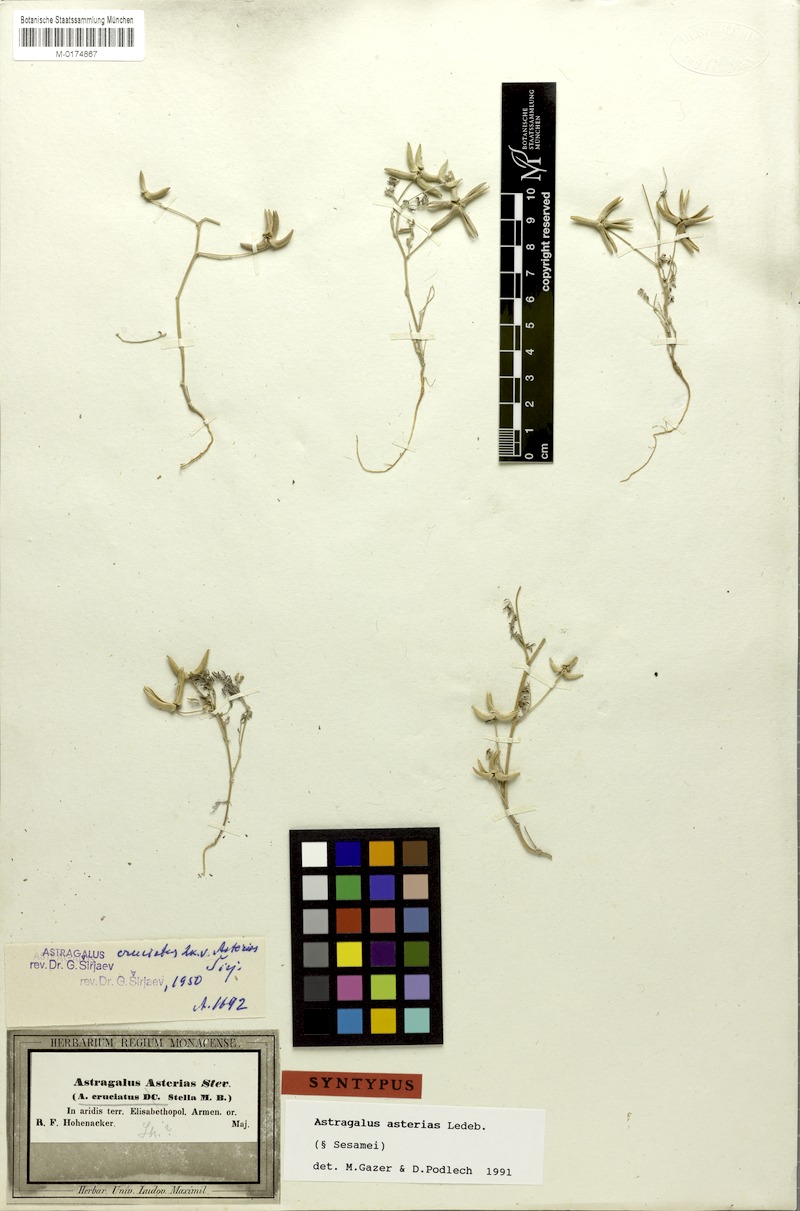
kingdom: Plantae
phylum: Tracheophyta
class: Magnoliopsida
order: Fabales
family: Fabaceae
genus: Astragalus
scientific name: Astragalus asterias
